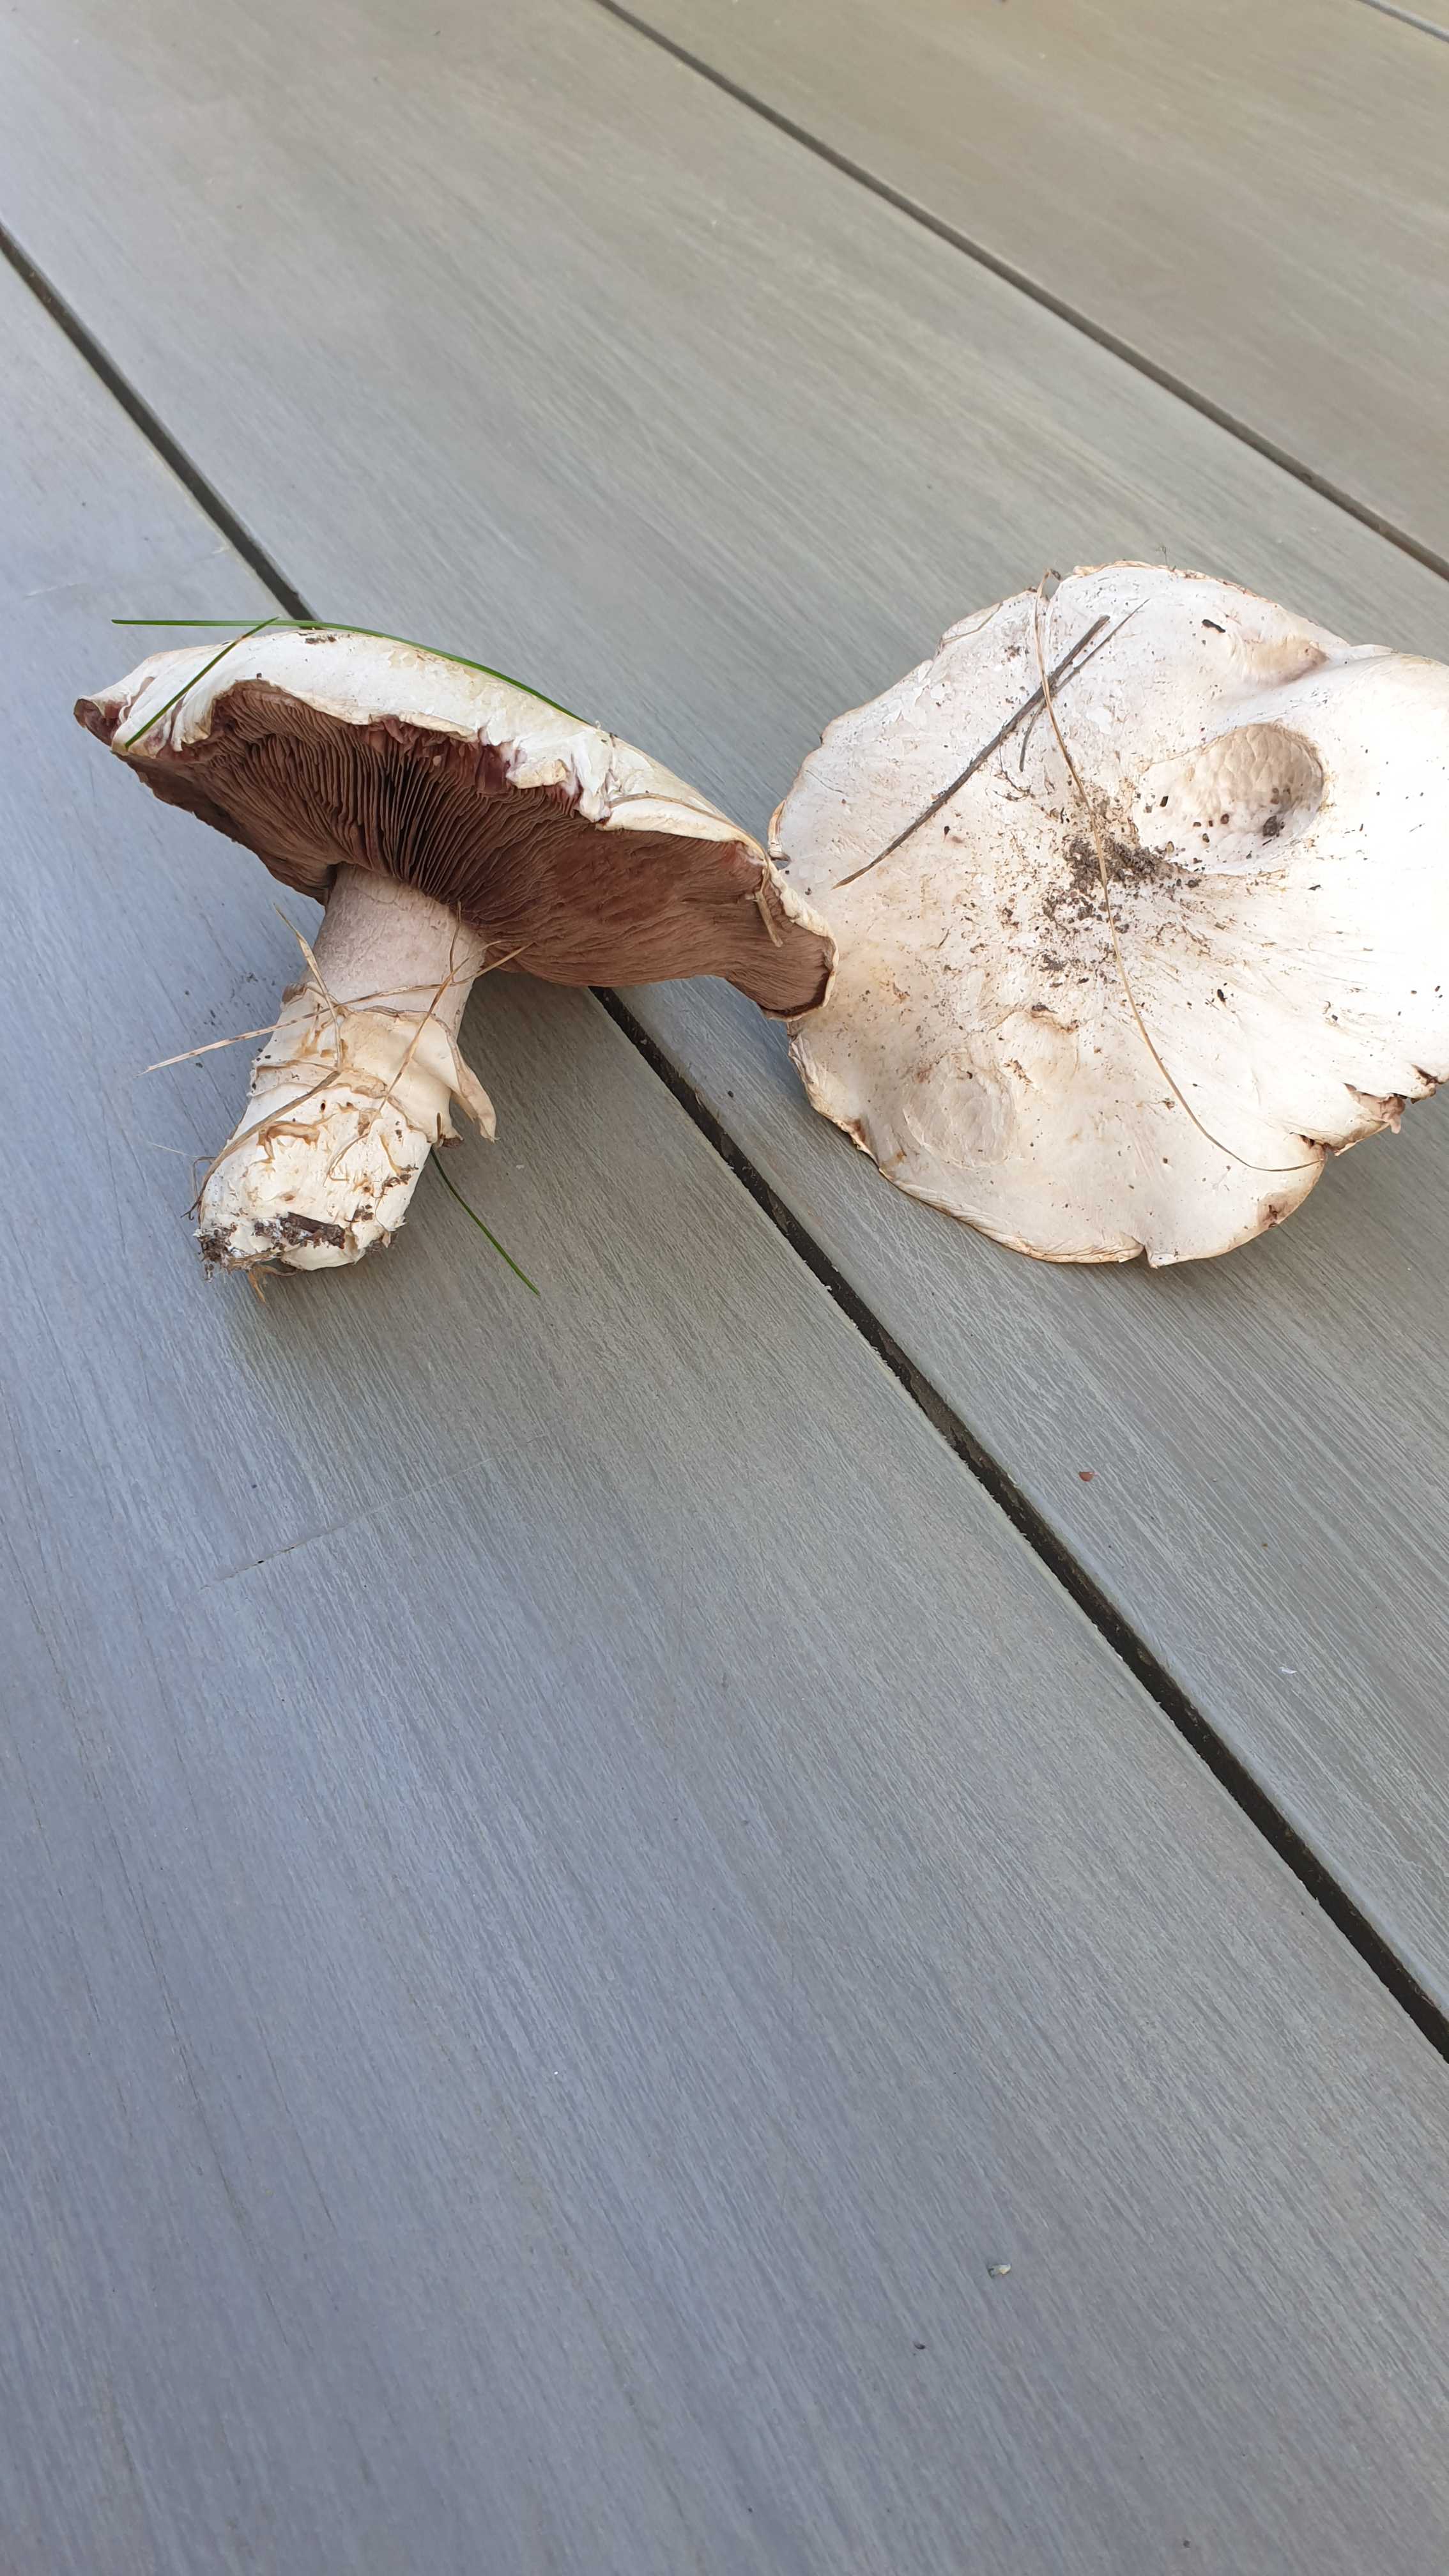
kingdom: Fungi
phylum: Basidiomycota
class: Agaricomycetes
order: Agaricales
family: Agaricaceae
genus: Agaricus
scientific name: Agaricus bitorquis
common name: vej-champignon
